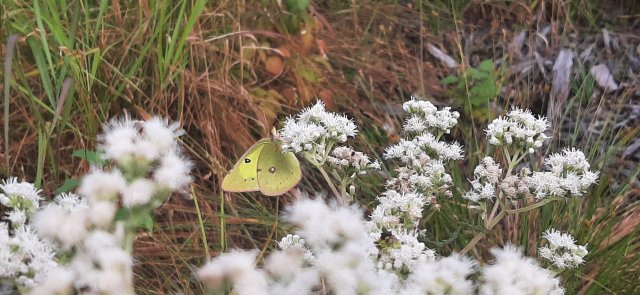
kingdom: Animalia
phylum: Arthropoda
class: Insecta
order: Lepidoptera
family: Pieridae
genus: Colias
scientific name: Colias philodice
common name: Clouded Sulphur
